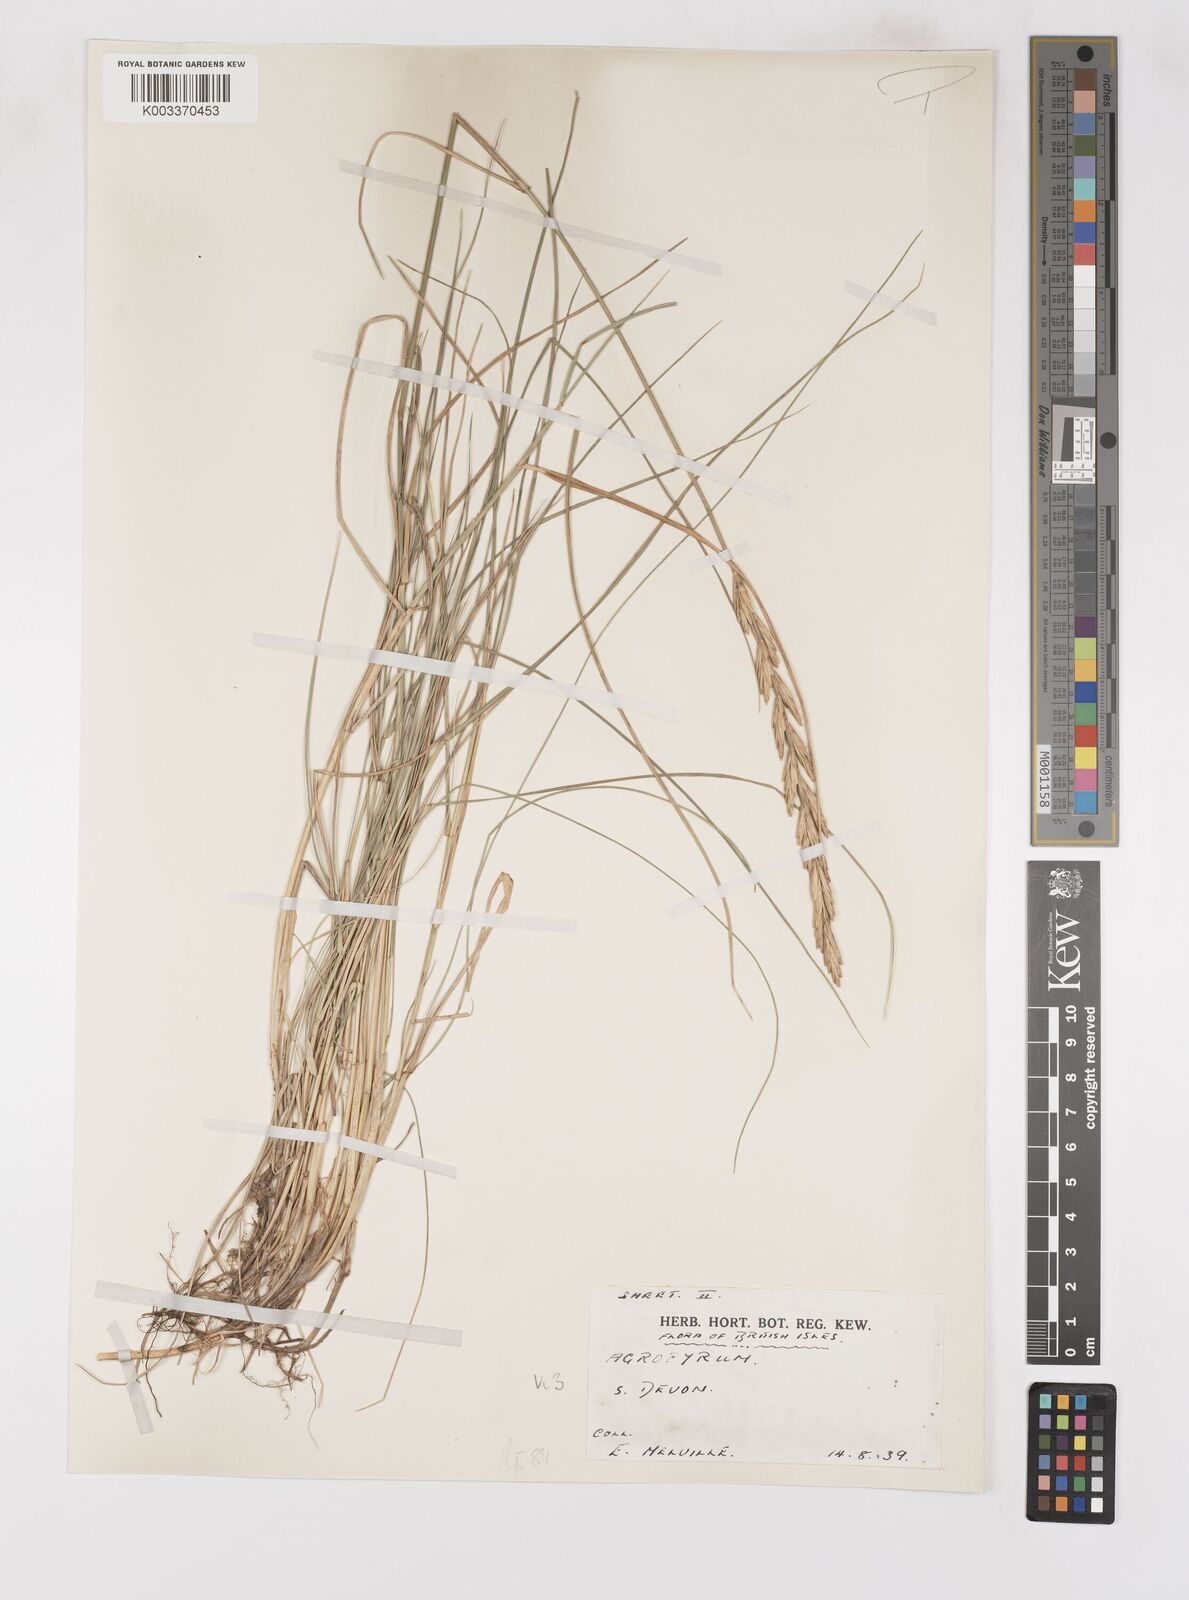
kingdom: Plantae
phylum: Tracheophyta
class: Liliopsida
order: Poales
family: Poaceae
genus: Thinoelymus
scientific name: Thinoelymus obtusiusculus
